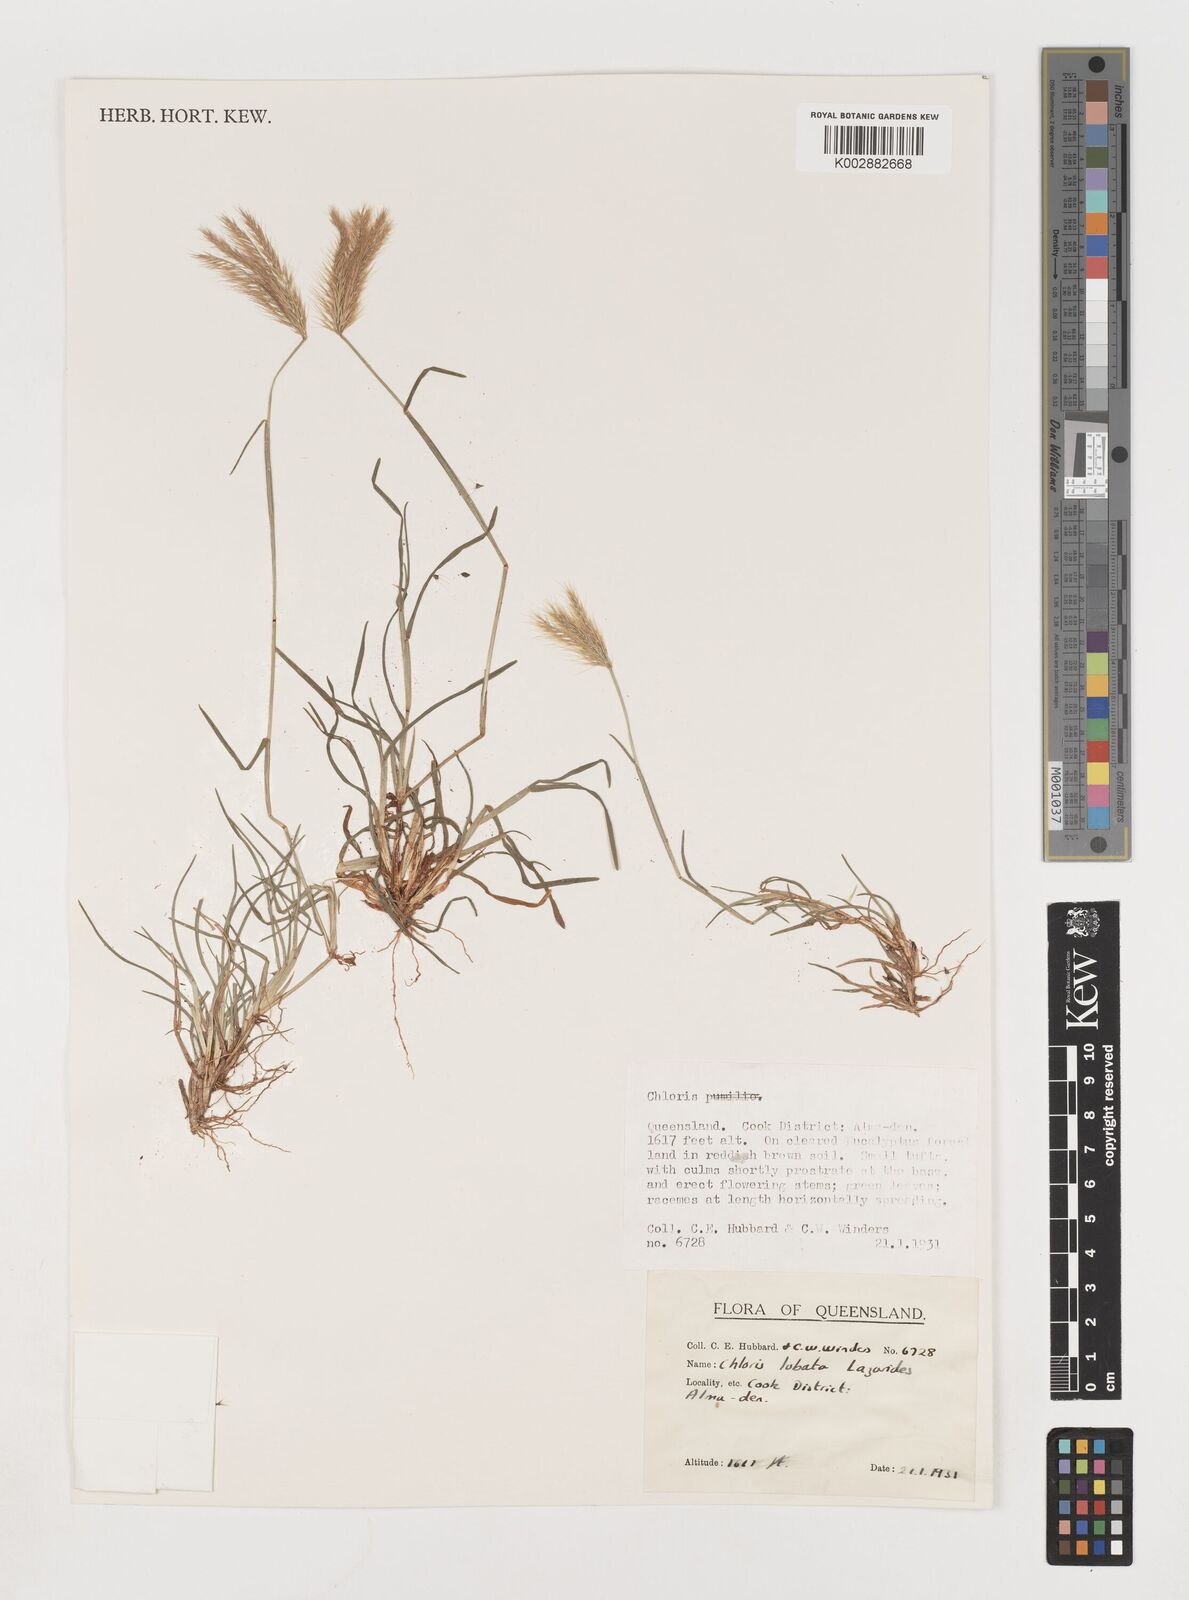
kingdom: Plantae
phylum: Tracheophyta
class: Liliopsida
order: Poales
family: Poaceae
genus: Chloris
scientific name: Chloris lobata
